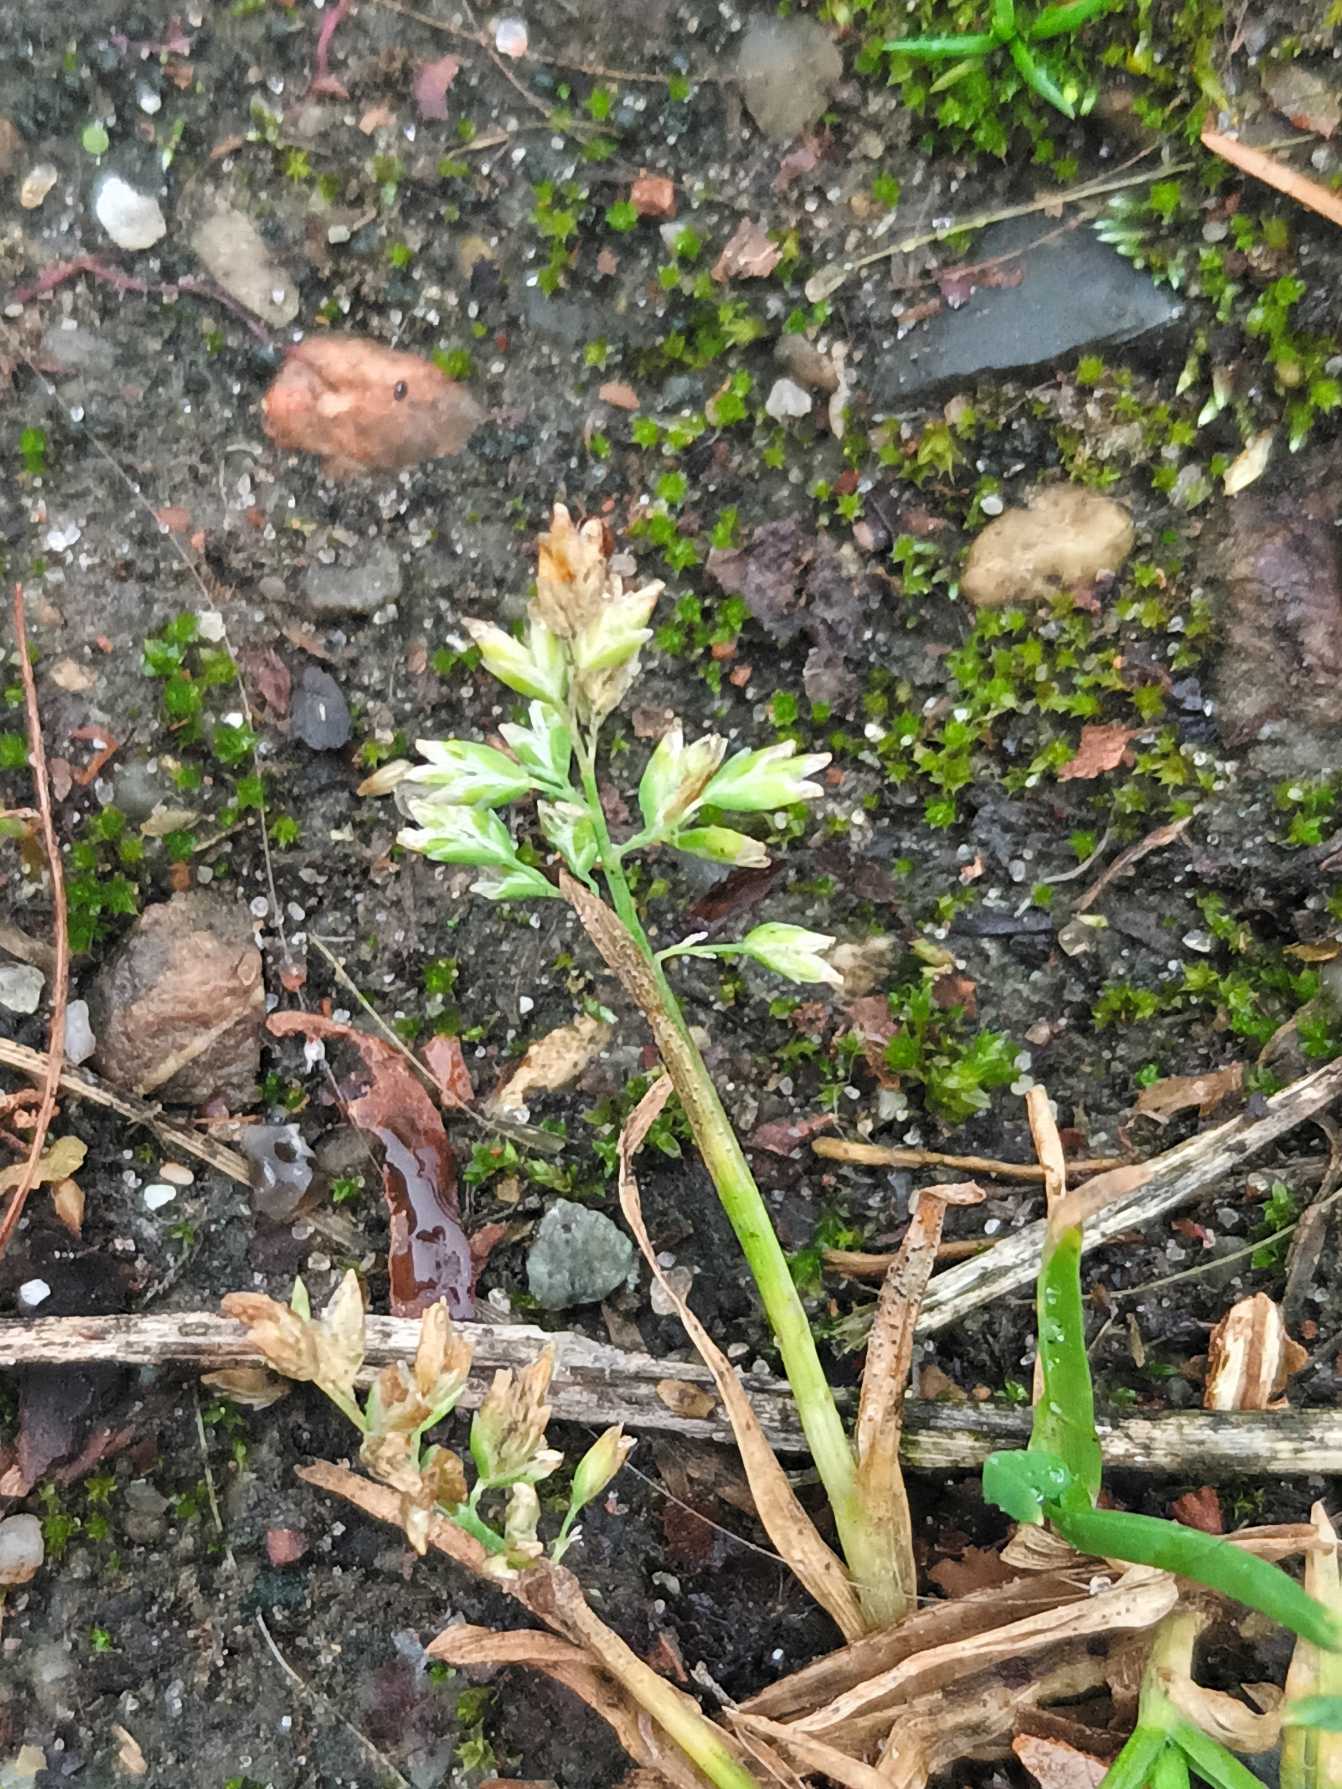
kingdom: Plantae
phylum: Tracheophyta
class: Liliopsida
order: Poales
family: Poaceae
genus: Poa
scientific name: Poa annua
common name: Enårig rapgræs
